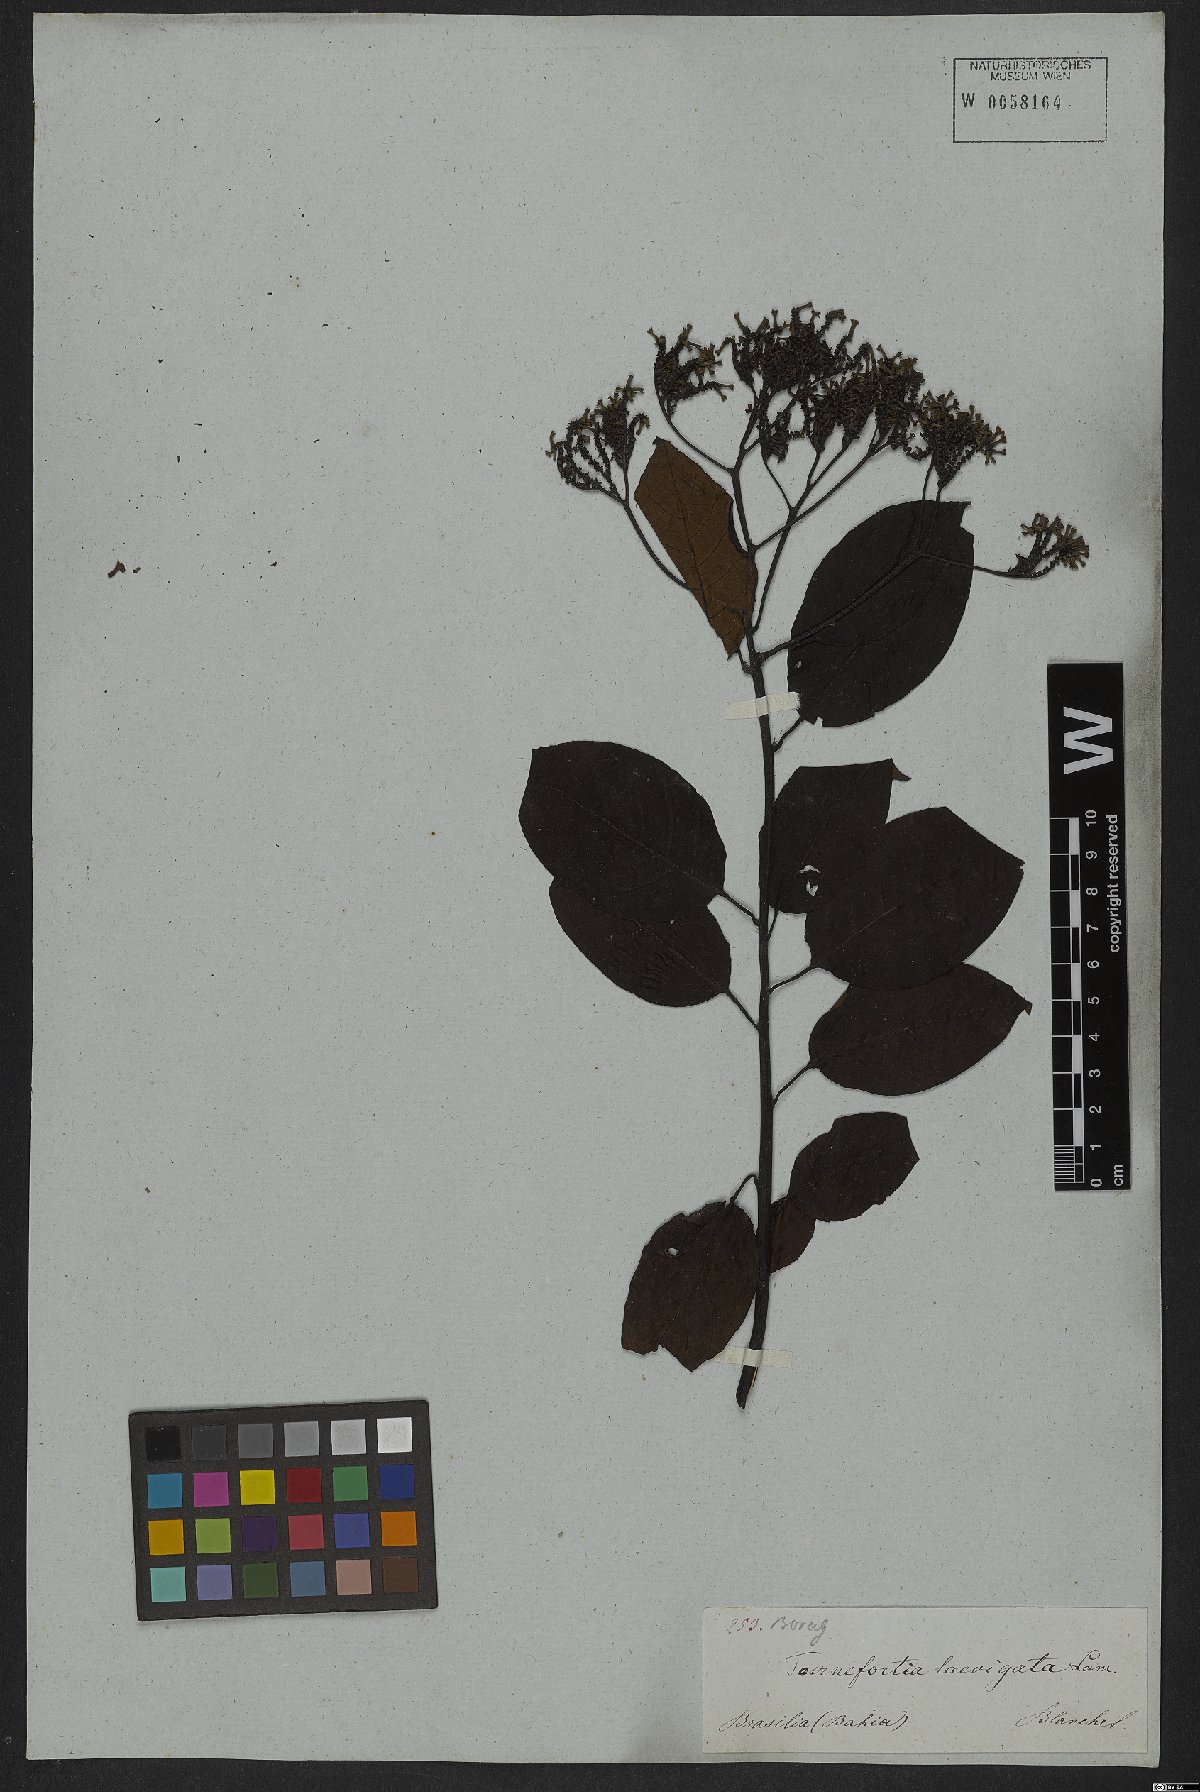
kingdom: Plantae
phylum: Tracheophyta
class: Magnoliopsida
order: Boraginales
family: Heliotropiaceae
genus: Heliotropium
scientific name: Heliotropium verdcourtii
